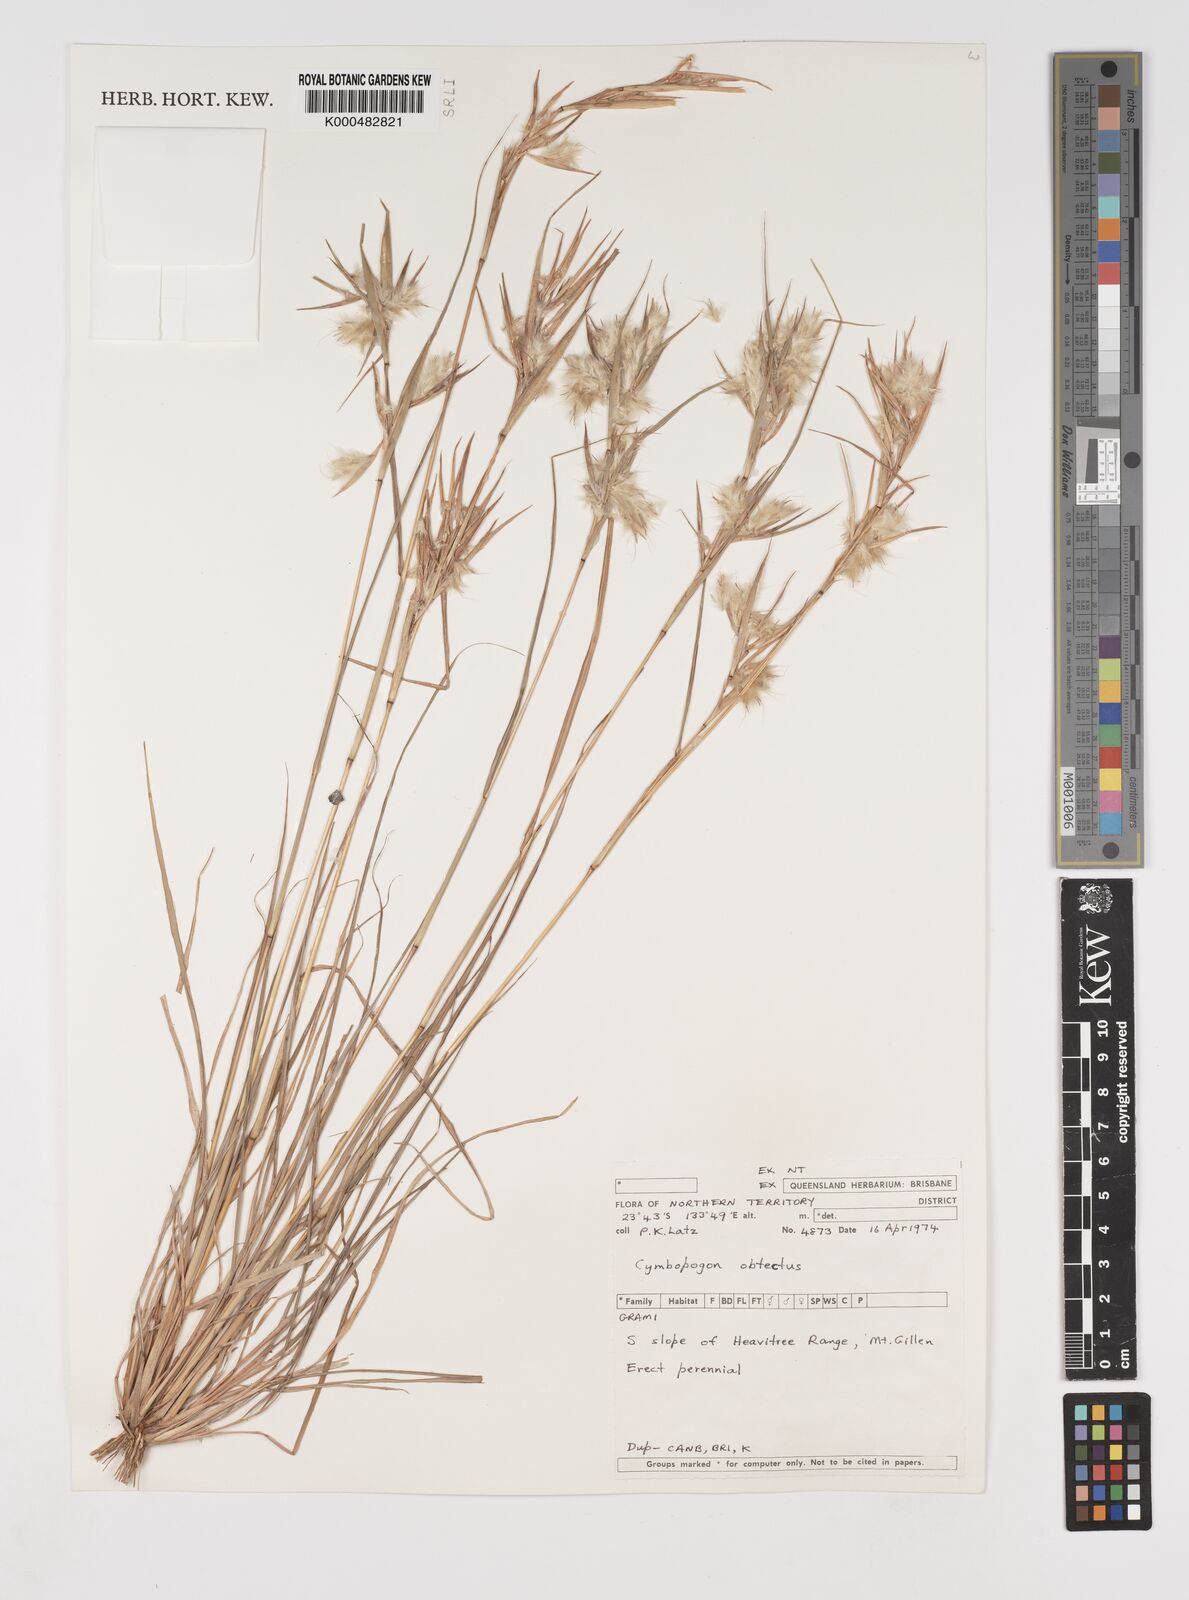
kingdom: Plantae
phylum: Tracheophyta
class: Liliopsida
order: Poales
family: Poaceae
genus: Cymbopogon
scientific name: Cymbopogon obtectus
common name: Silky heads
